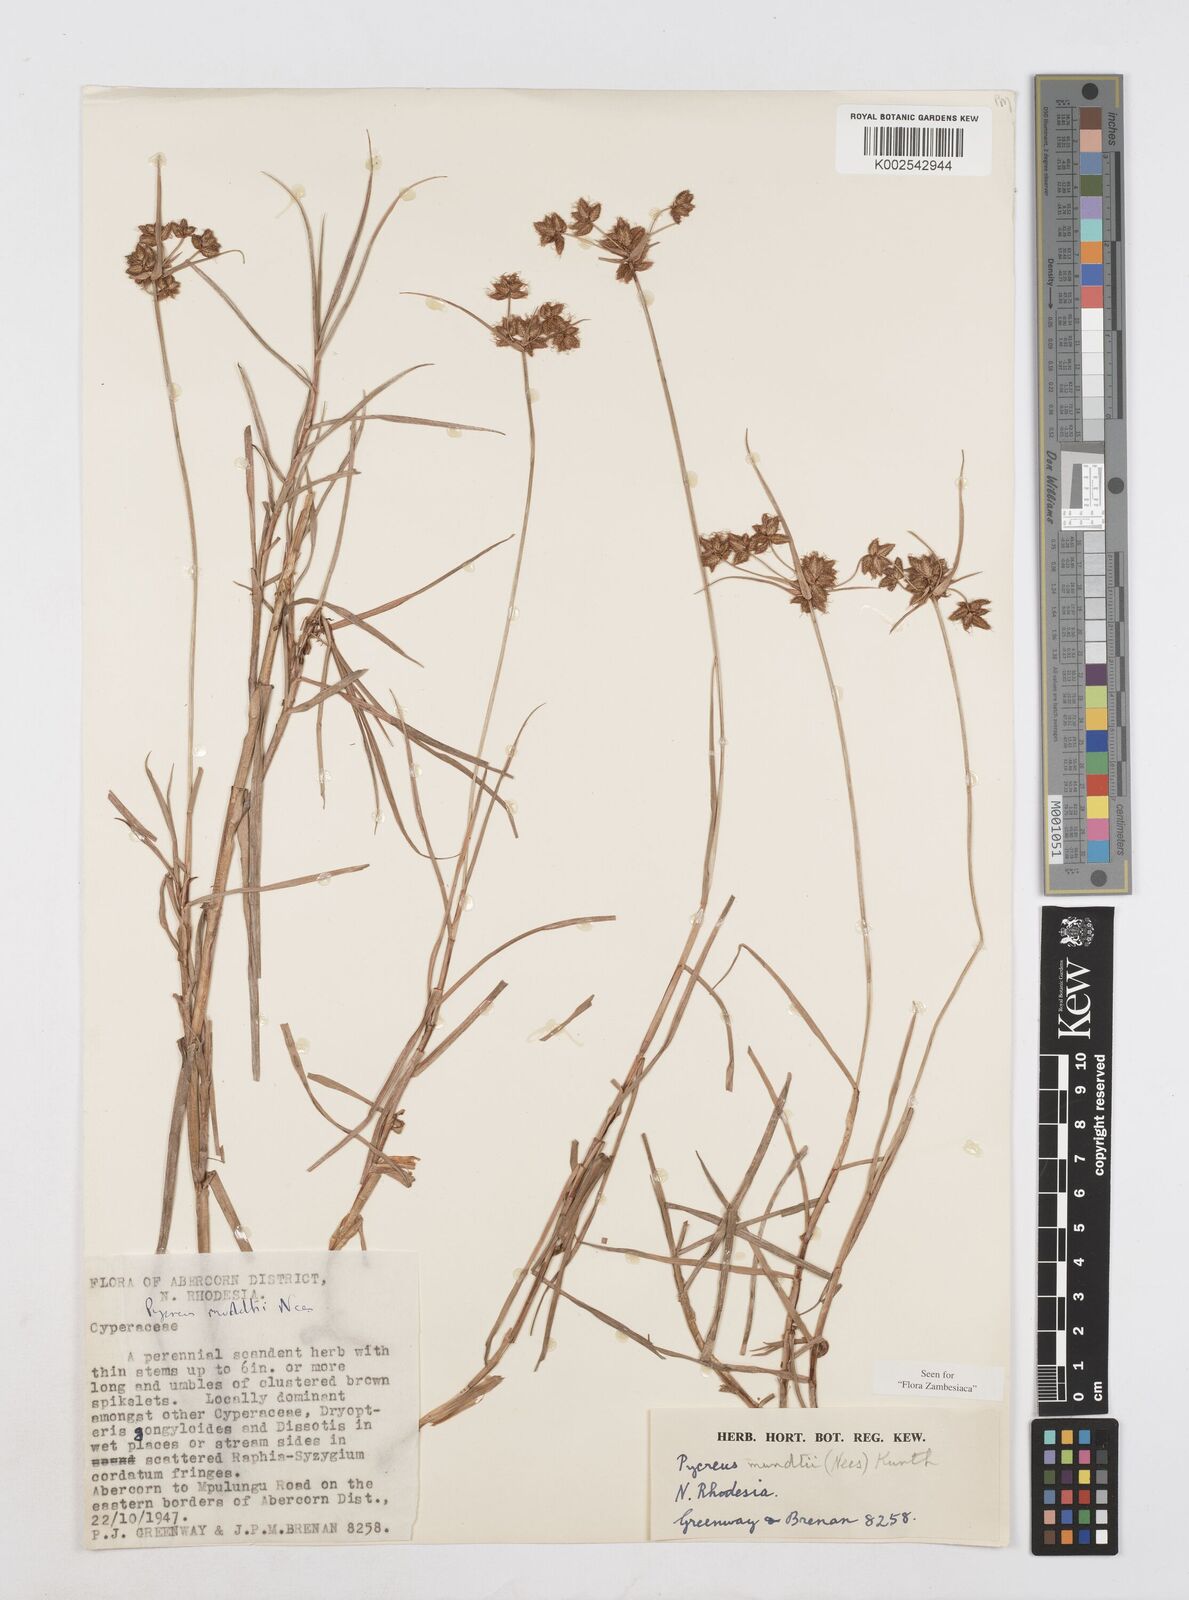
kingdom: Plantae
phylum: Tracheophyta
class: Liliopsida
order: Poales
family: Cyperaceae
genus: Cyperus
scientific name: Cyperus mundii
